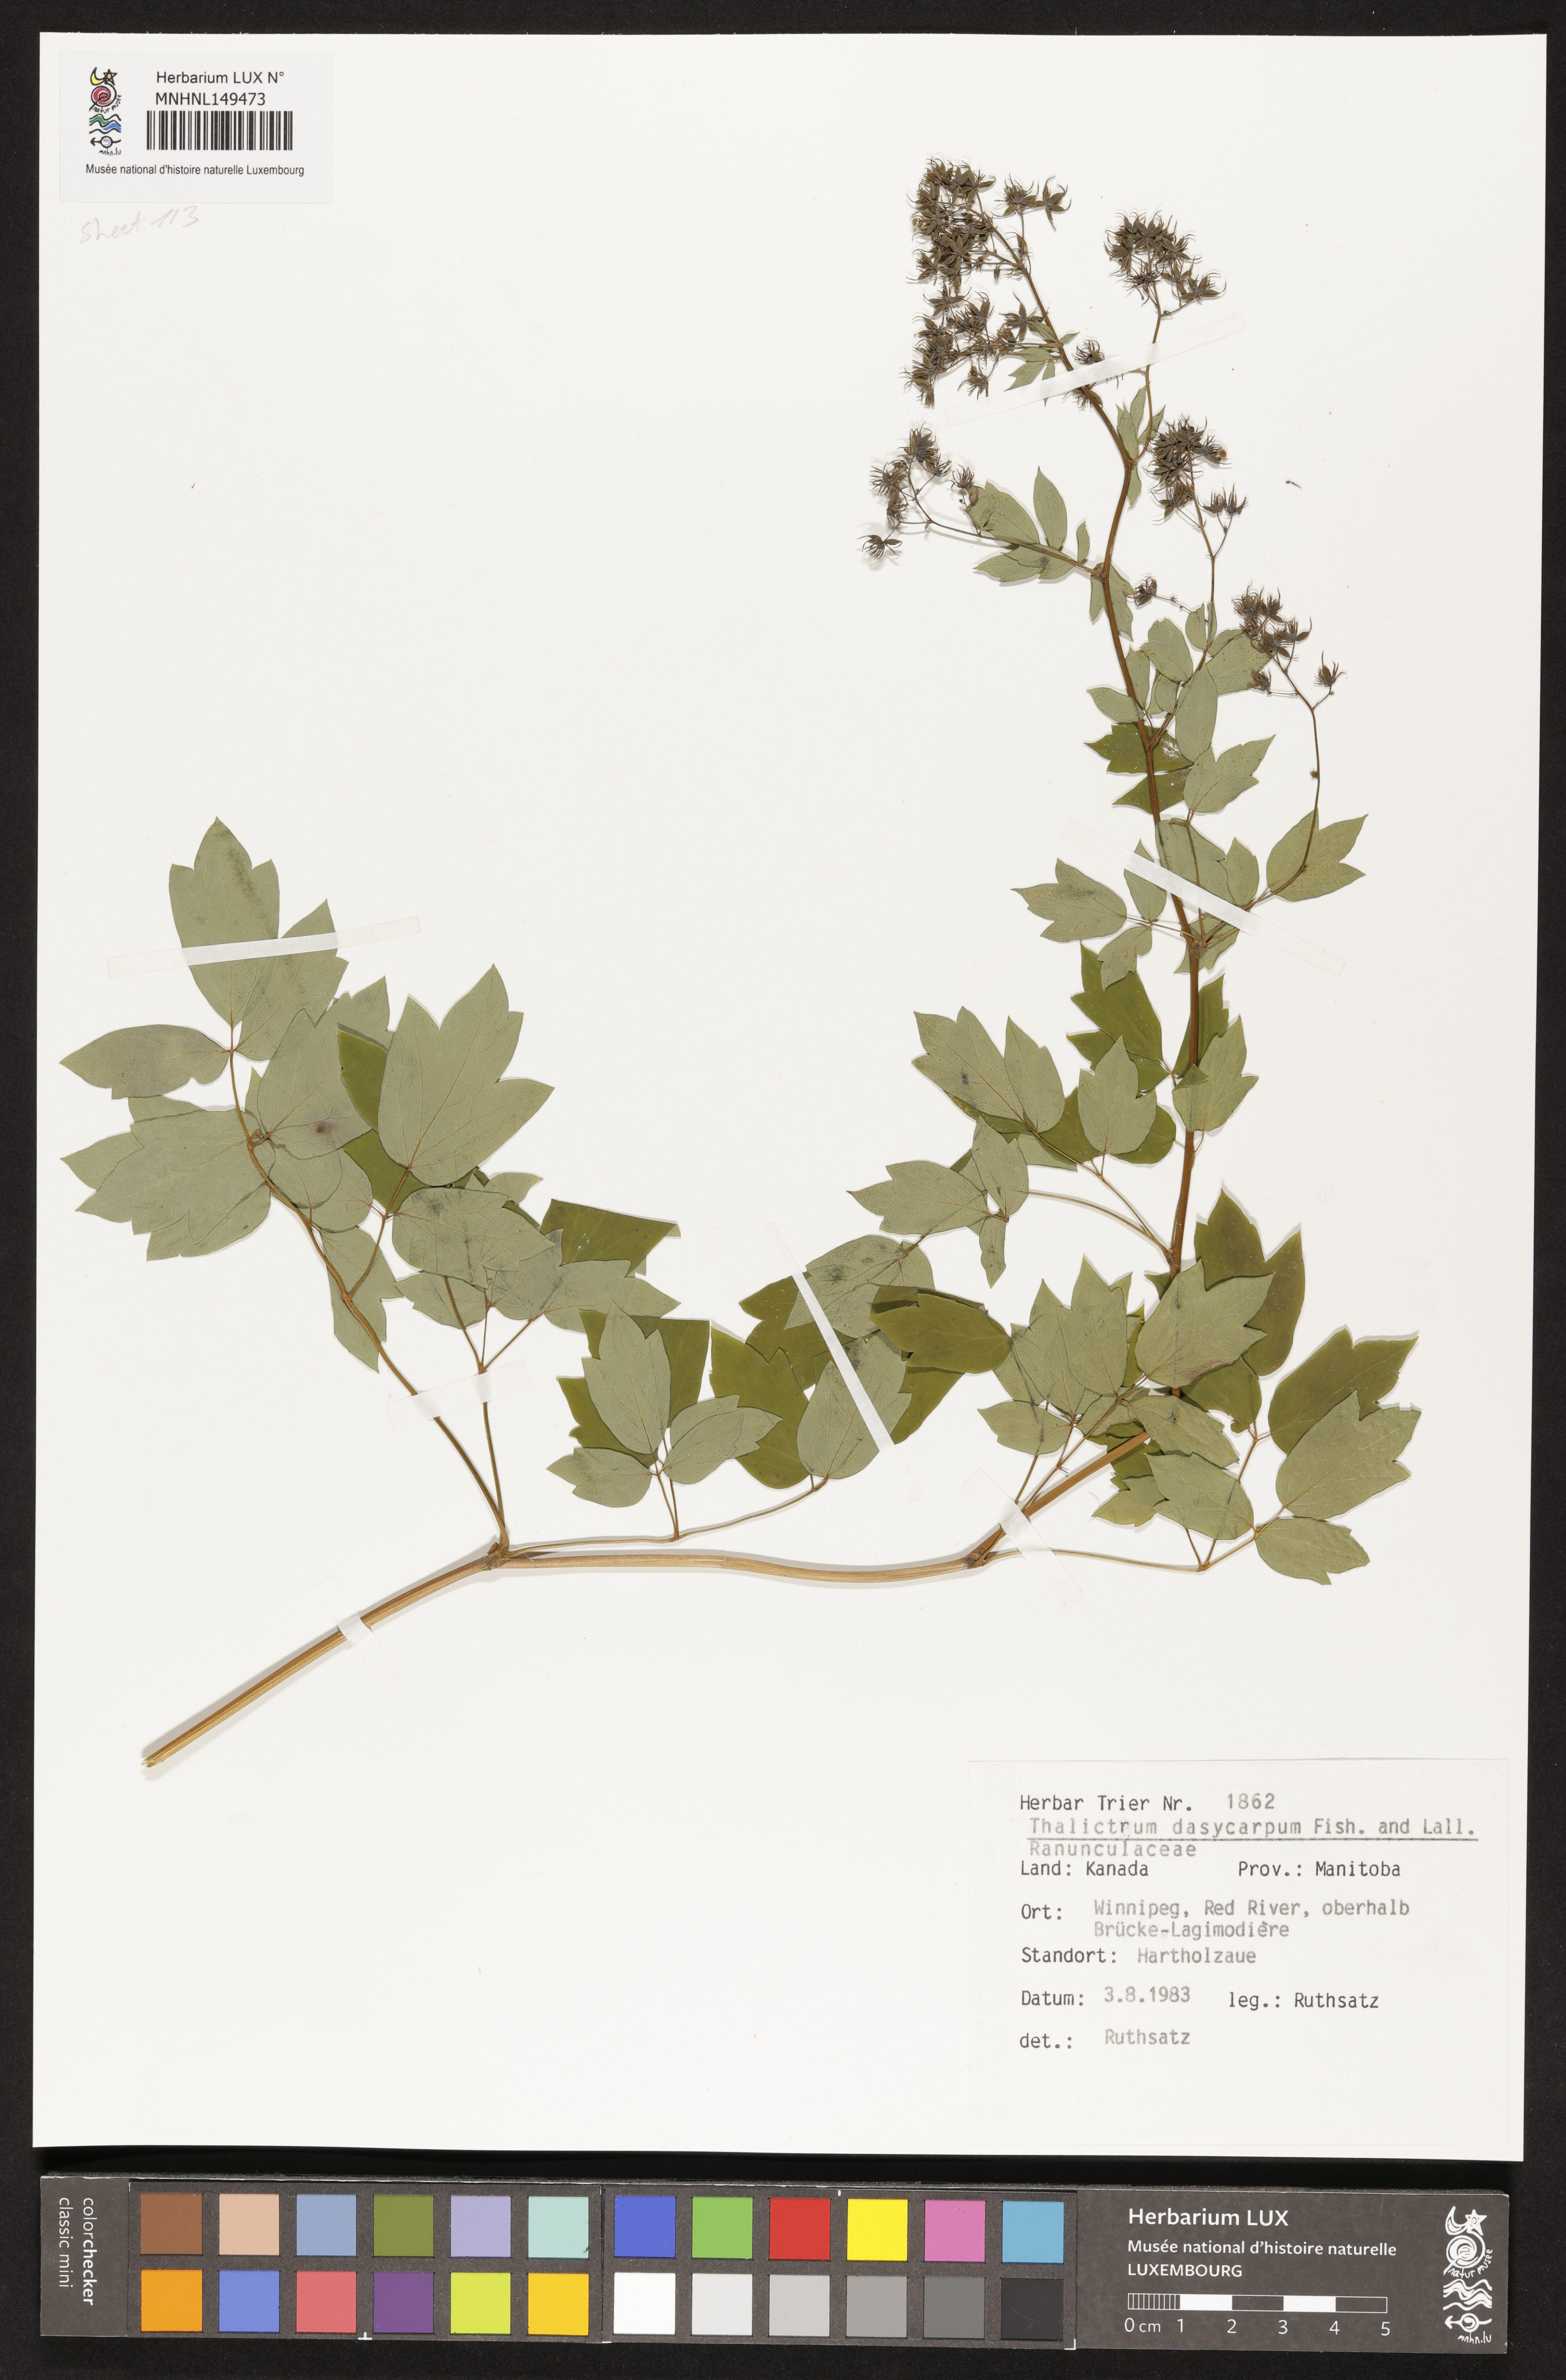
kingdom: Plantae
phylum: Tracheophyta
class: Magnoliopsida
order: Ranunculales
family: Ranunculaceae
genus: Thalictrum
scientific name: Thalictrum dasycarpum
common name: Purple meadow-rue
